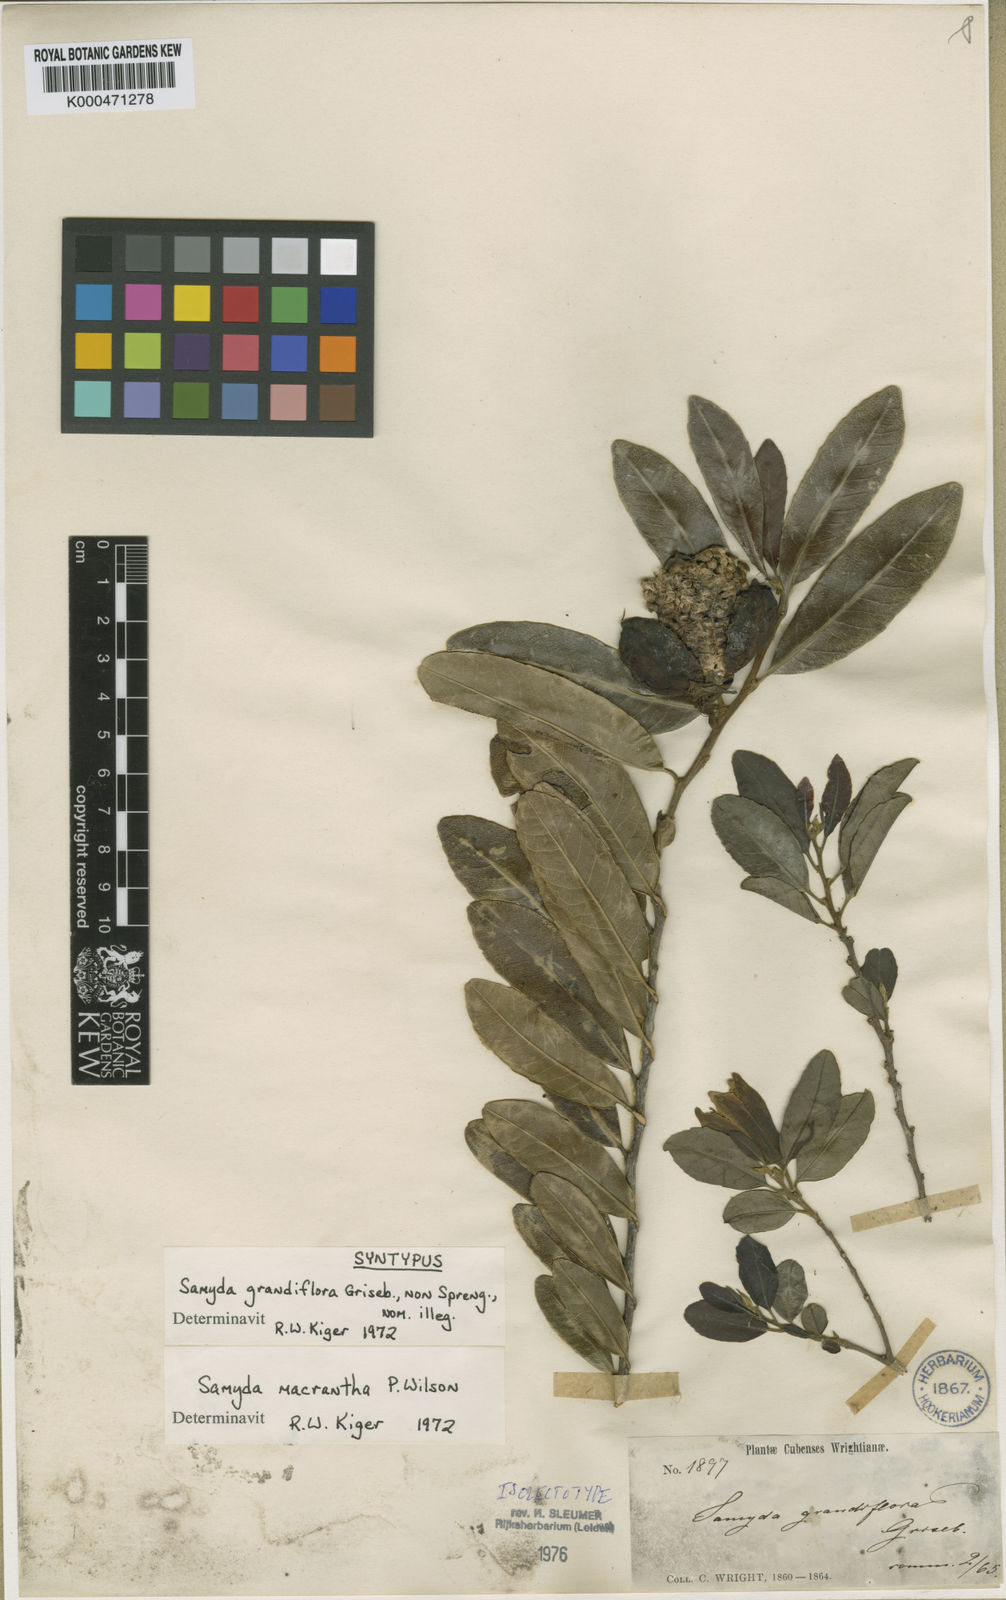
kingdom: Plantae
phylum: Tracheophyta
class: Magnoliopsida
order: Malpighiales
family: Salicaceae
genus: Casearia
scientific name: Casearia dolichanthera
